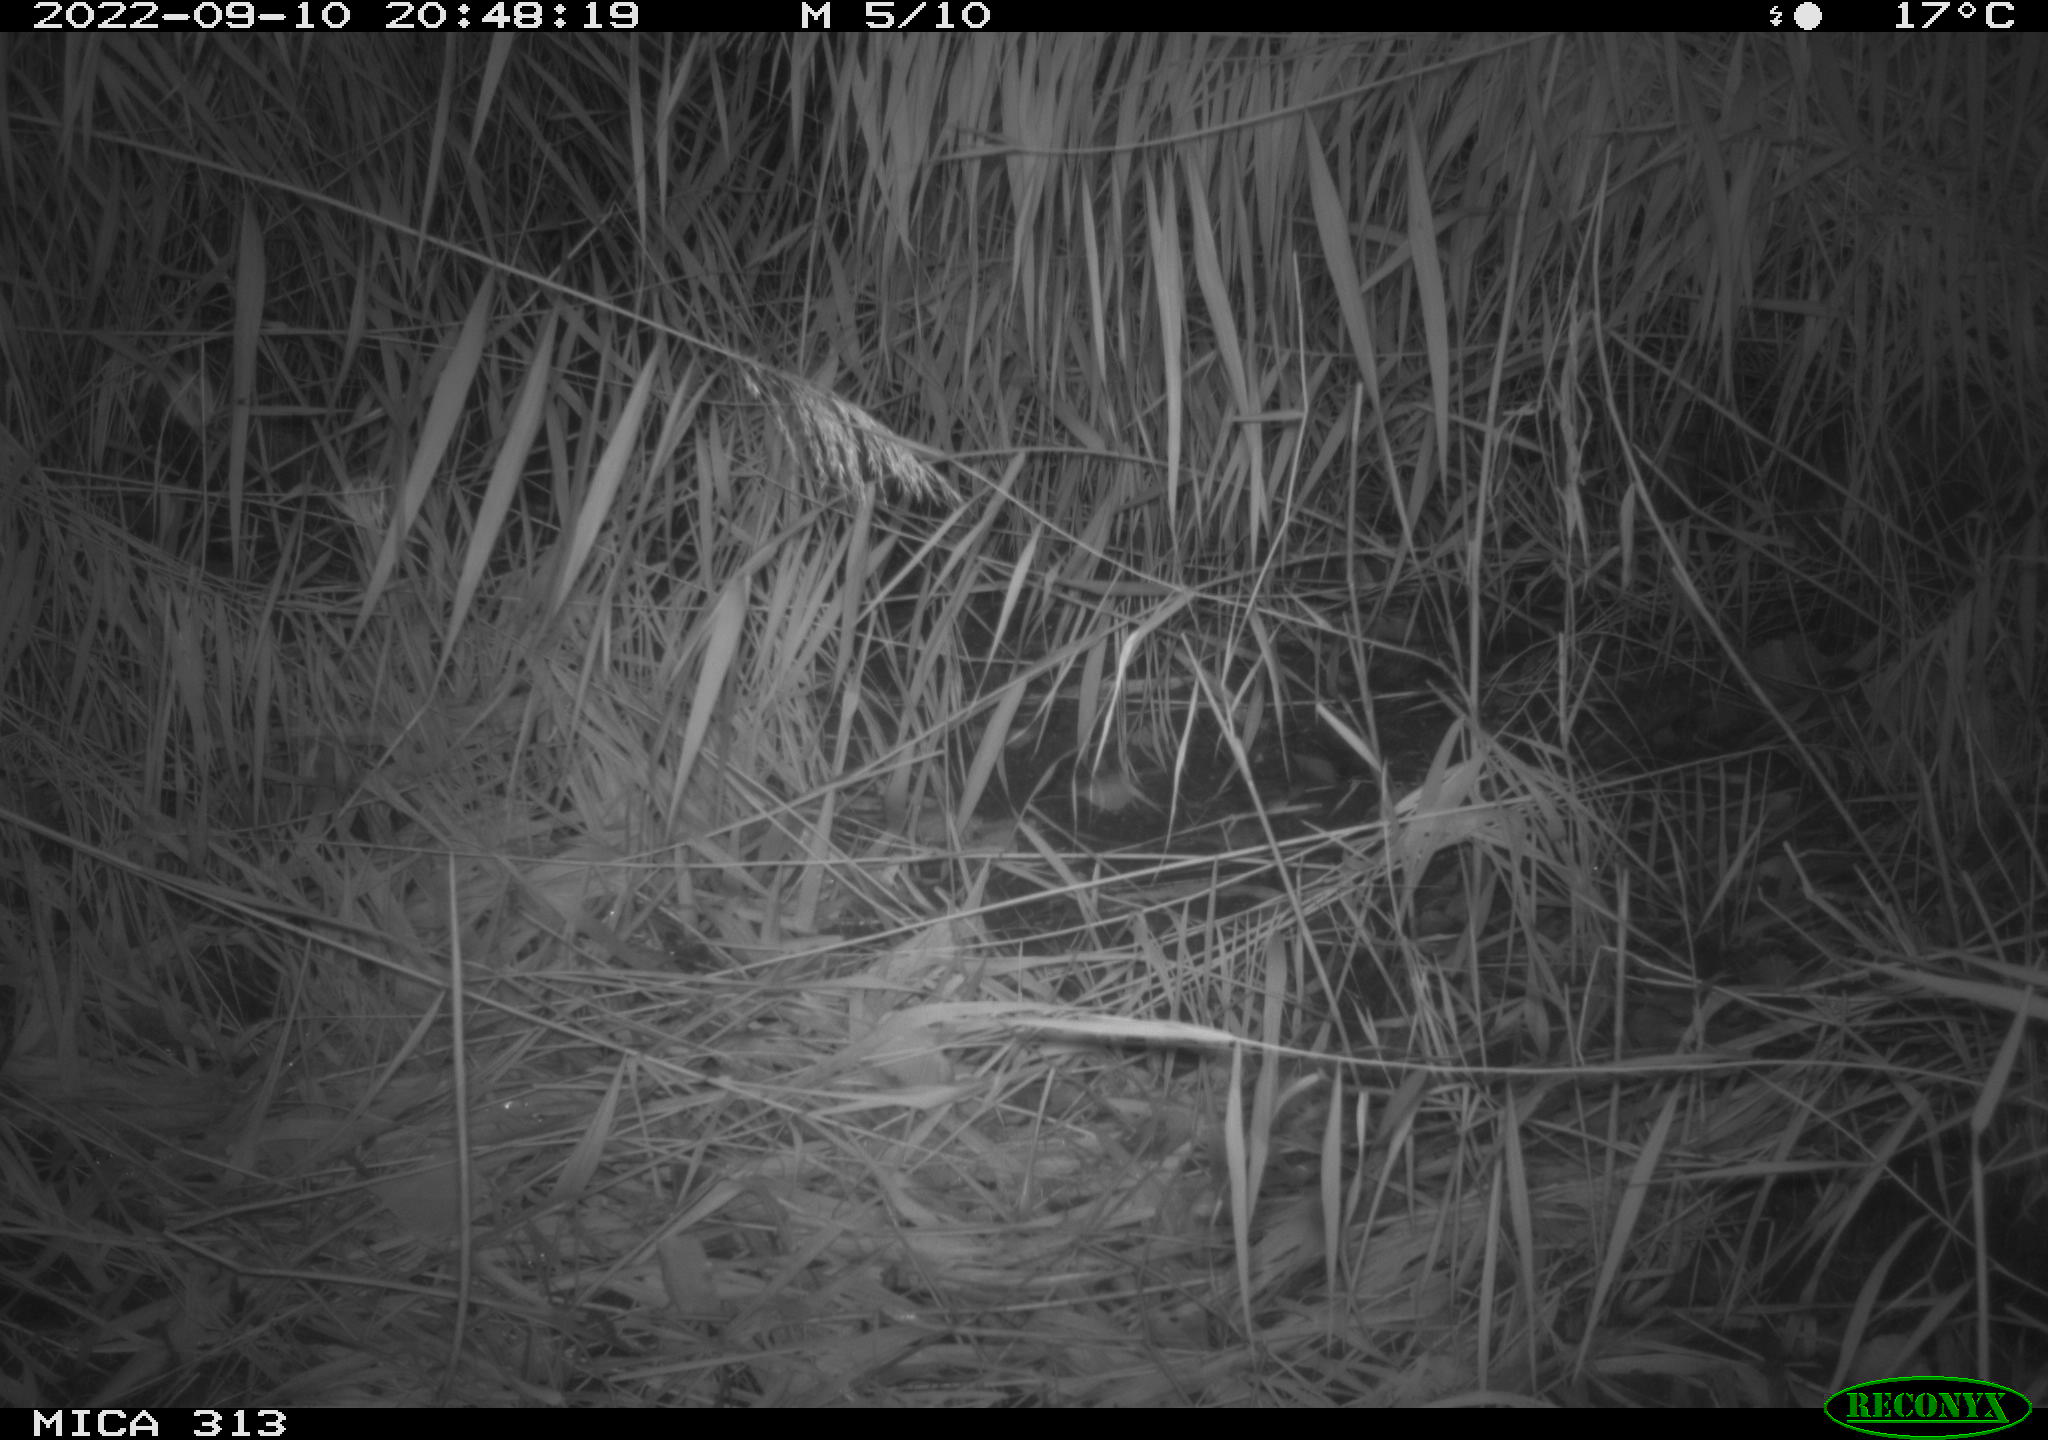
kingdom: Animalia
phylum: Chordata
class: Mammalia
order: Rodentia
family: Muridae
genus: Rattus
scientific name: Rattus norvegicus
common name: Brown rat
